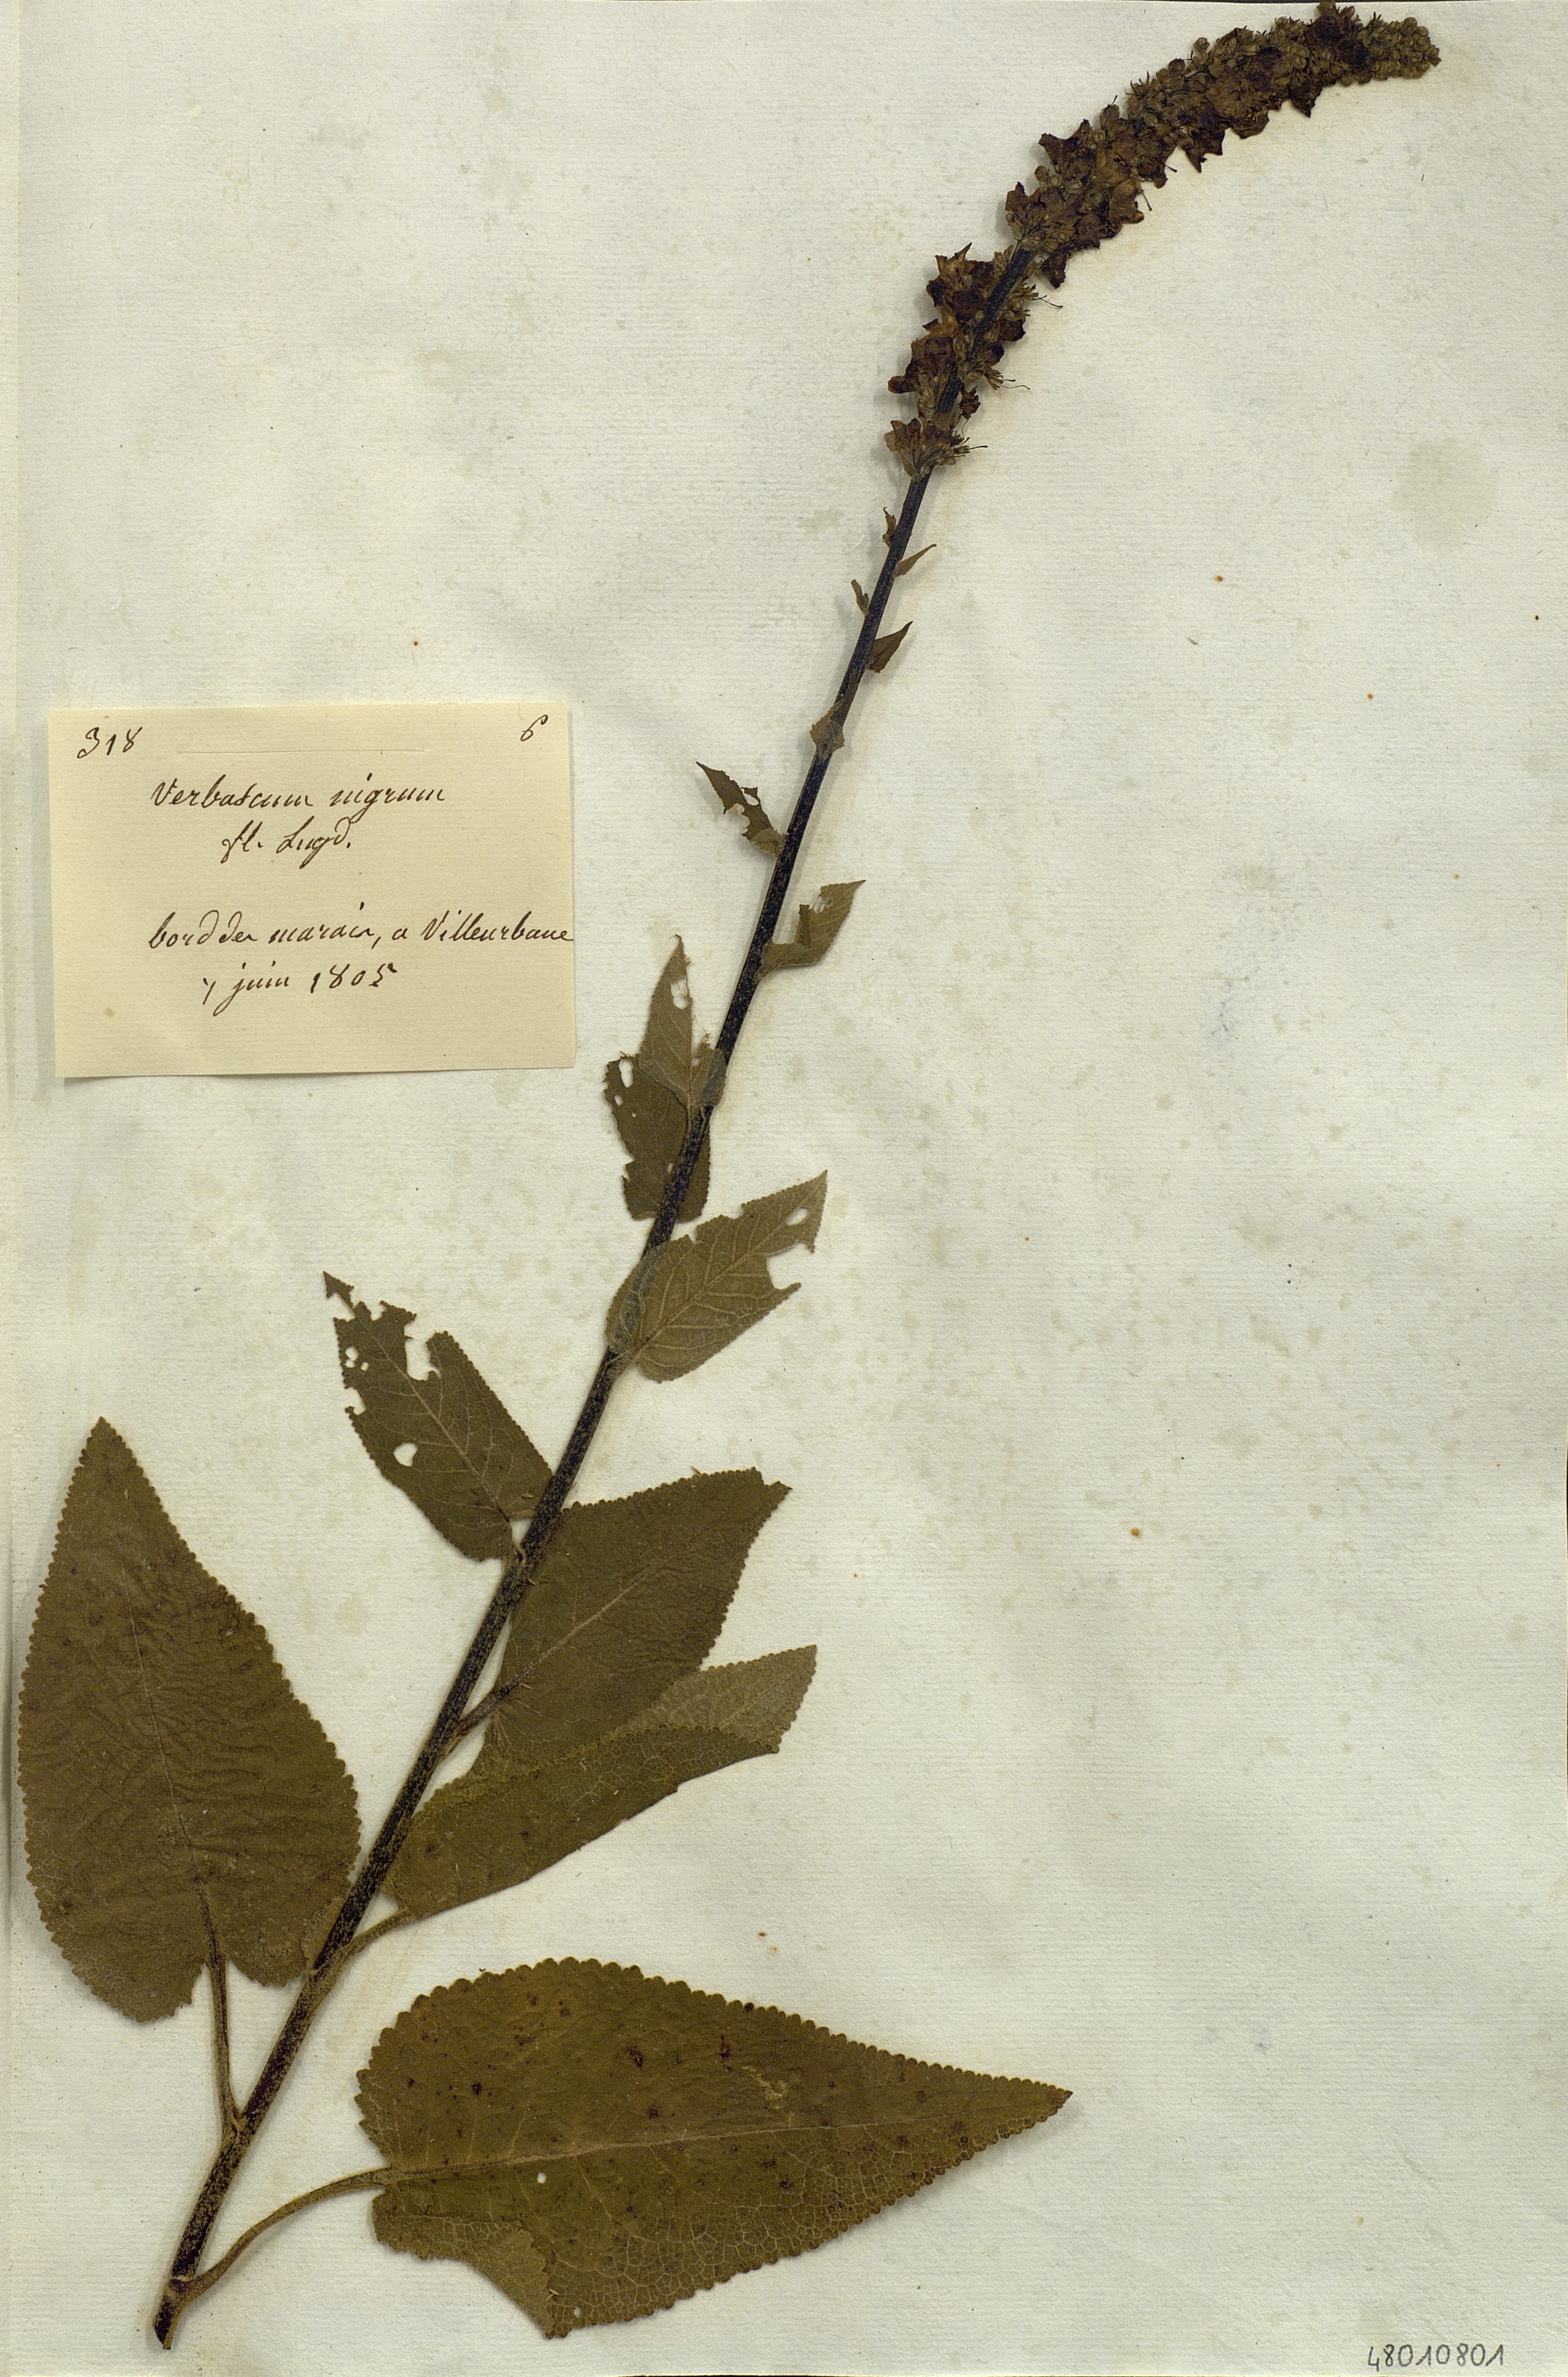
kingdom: Plantae
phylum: Tracheophyta
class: Magnoliopsida
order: Lamiales
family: Scrophulariaceae
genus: Verbascum
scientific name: Verbascum nigrum
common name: Dark mullein
